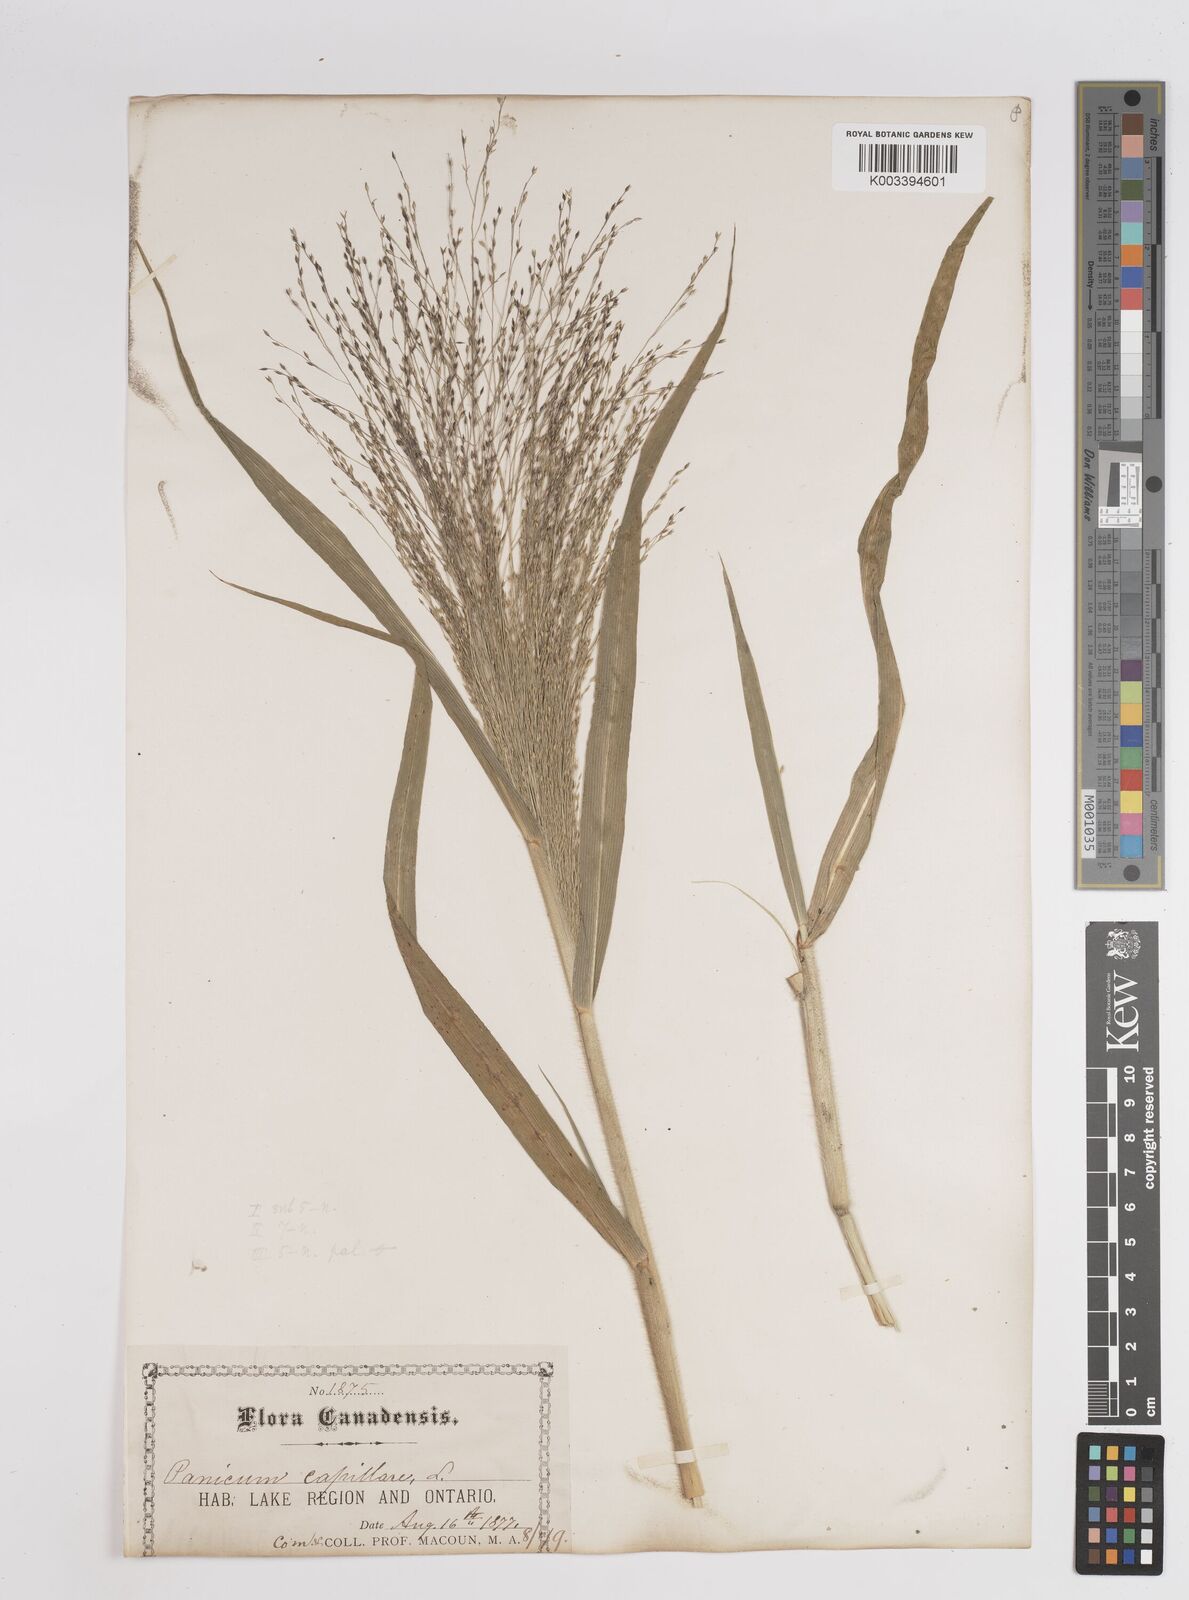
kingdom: Plantae
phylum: Tracheophyta
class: Liliopsida
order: Poales
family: Poaceae
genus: Panicum
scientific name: Panicum capillare
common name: Witch-grass
